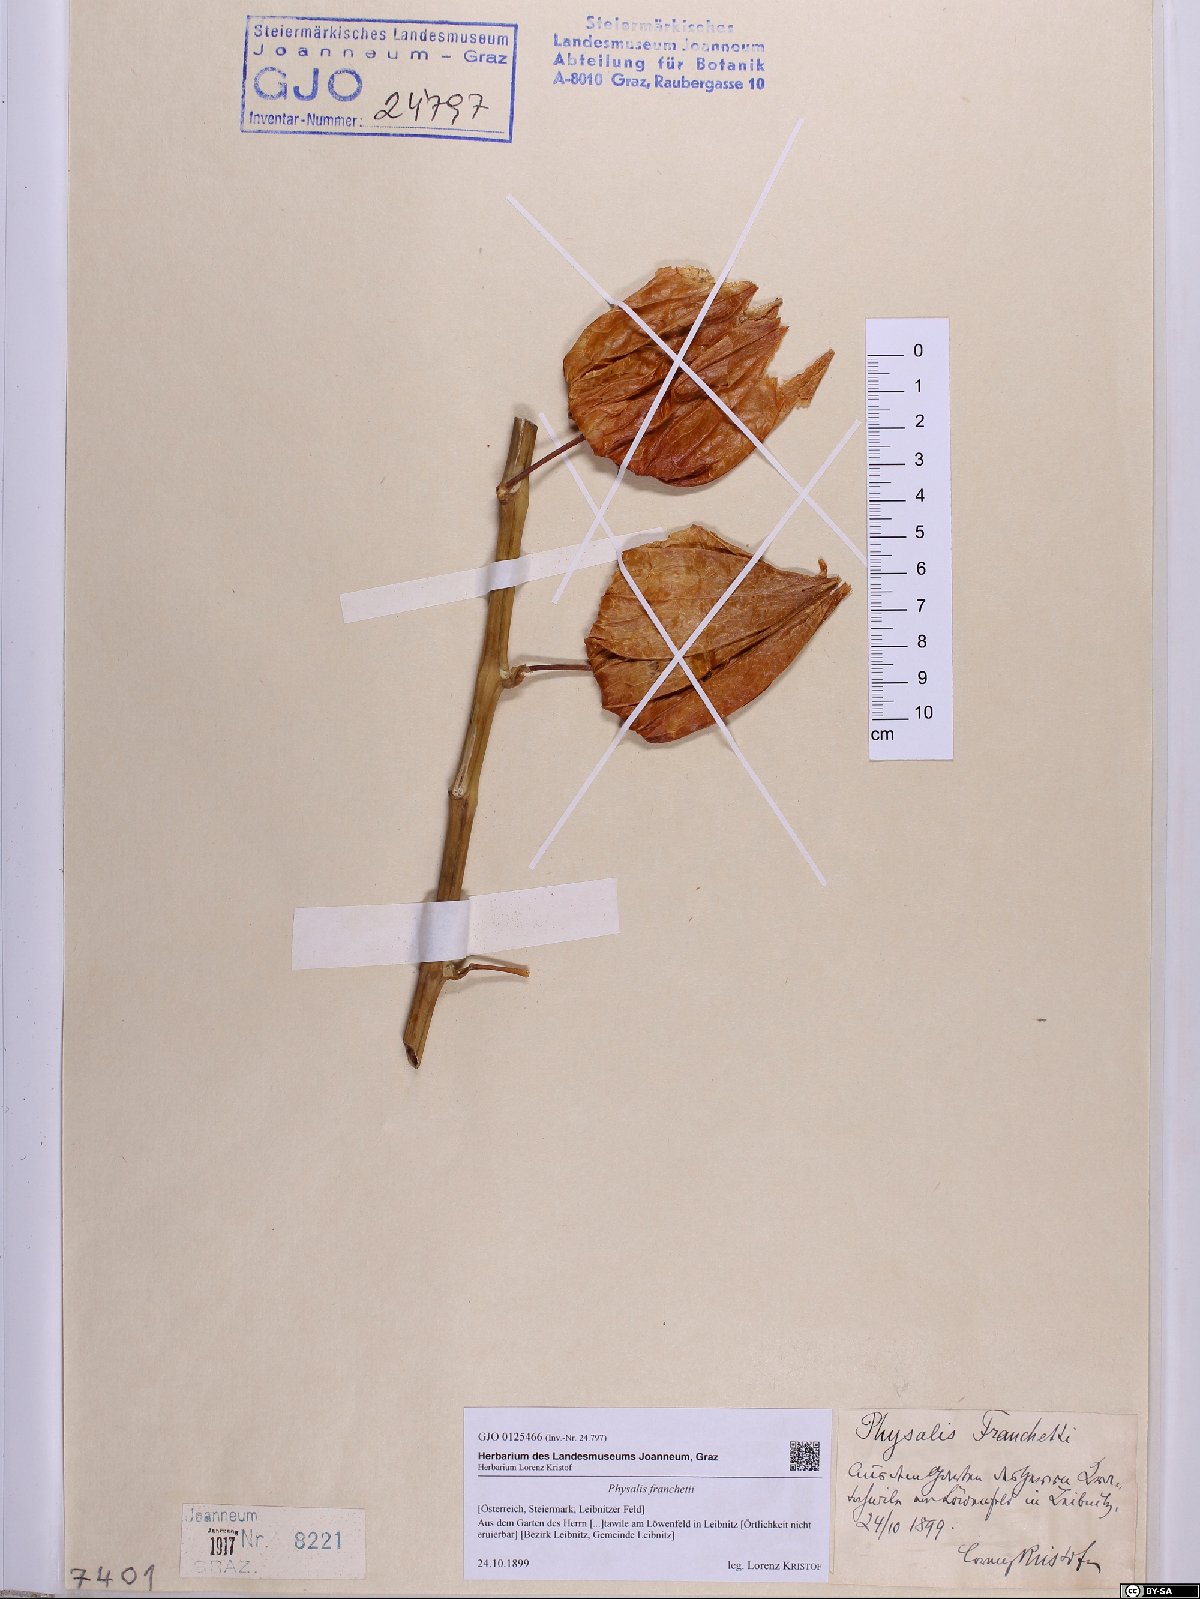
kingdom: Plantae
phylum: Tracheophyta
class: Magnoliopsida
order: Solanales
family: Solanaceae
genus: Alkekengi
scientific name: Alkekengi officinarum
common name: Japanese-lantern
